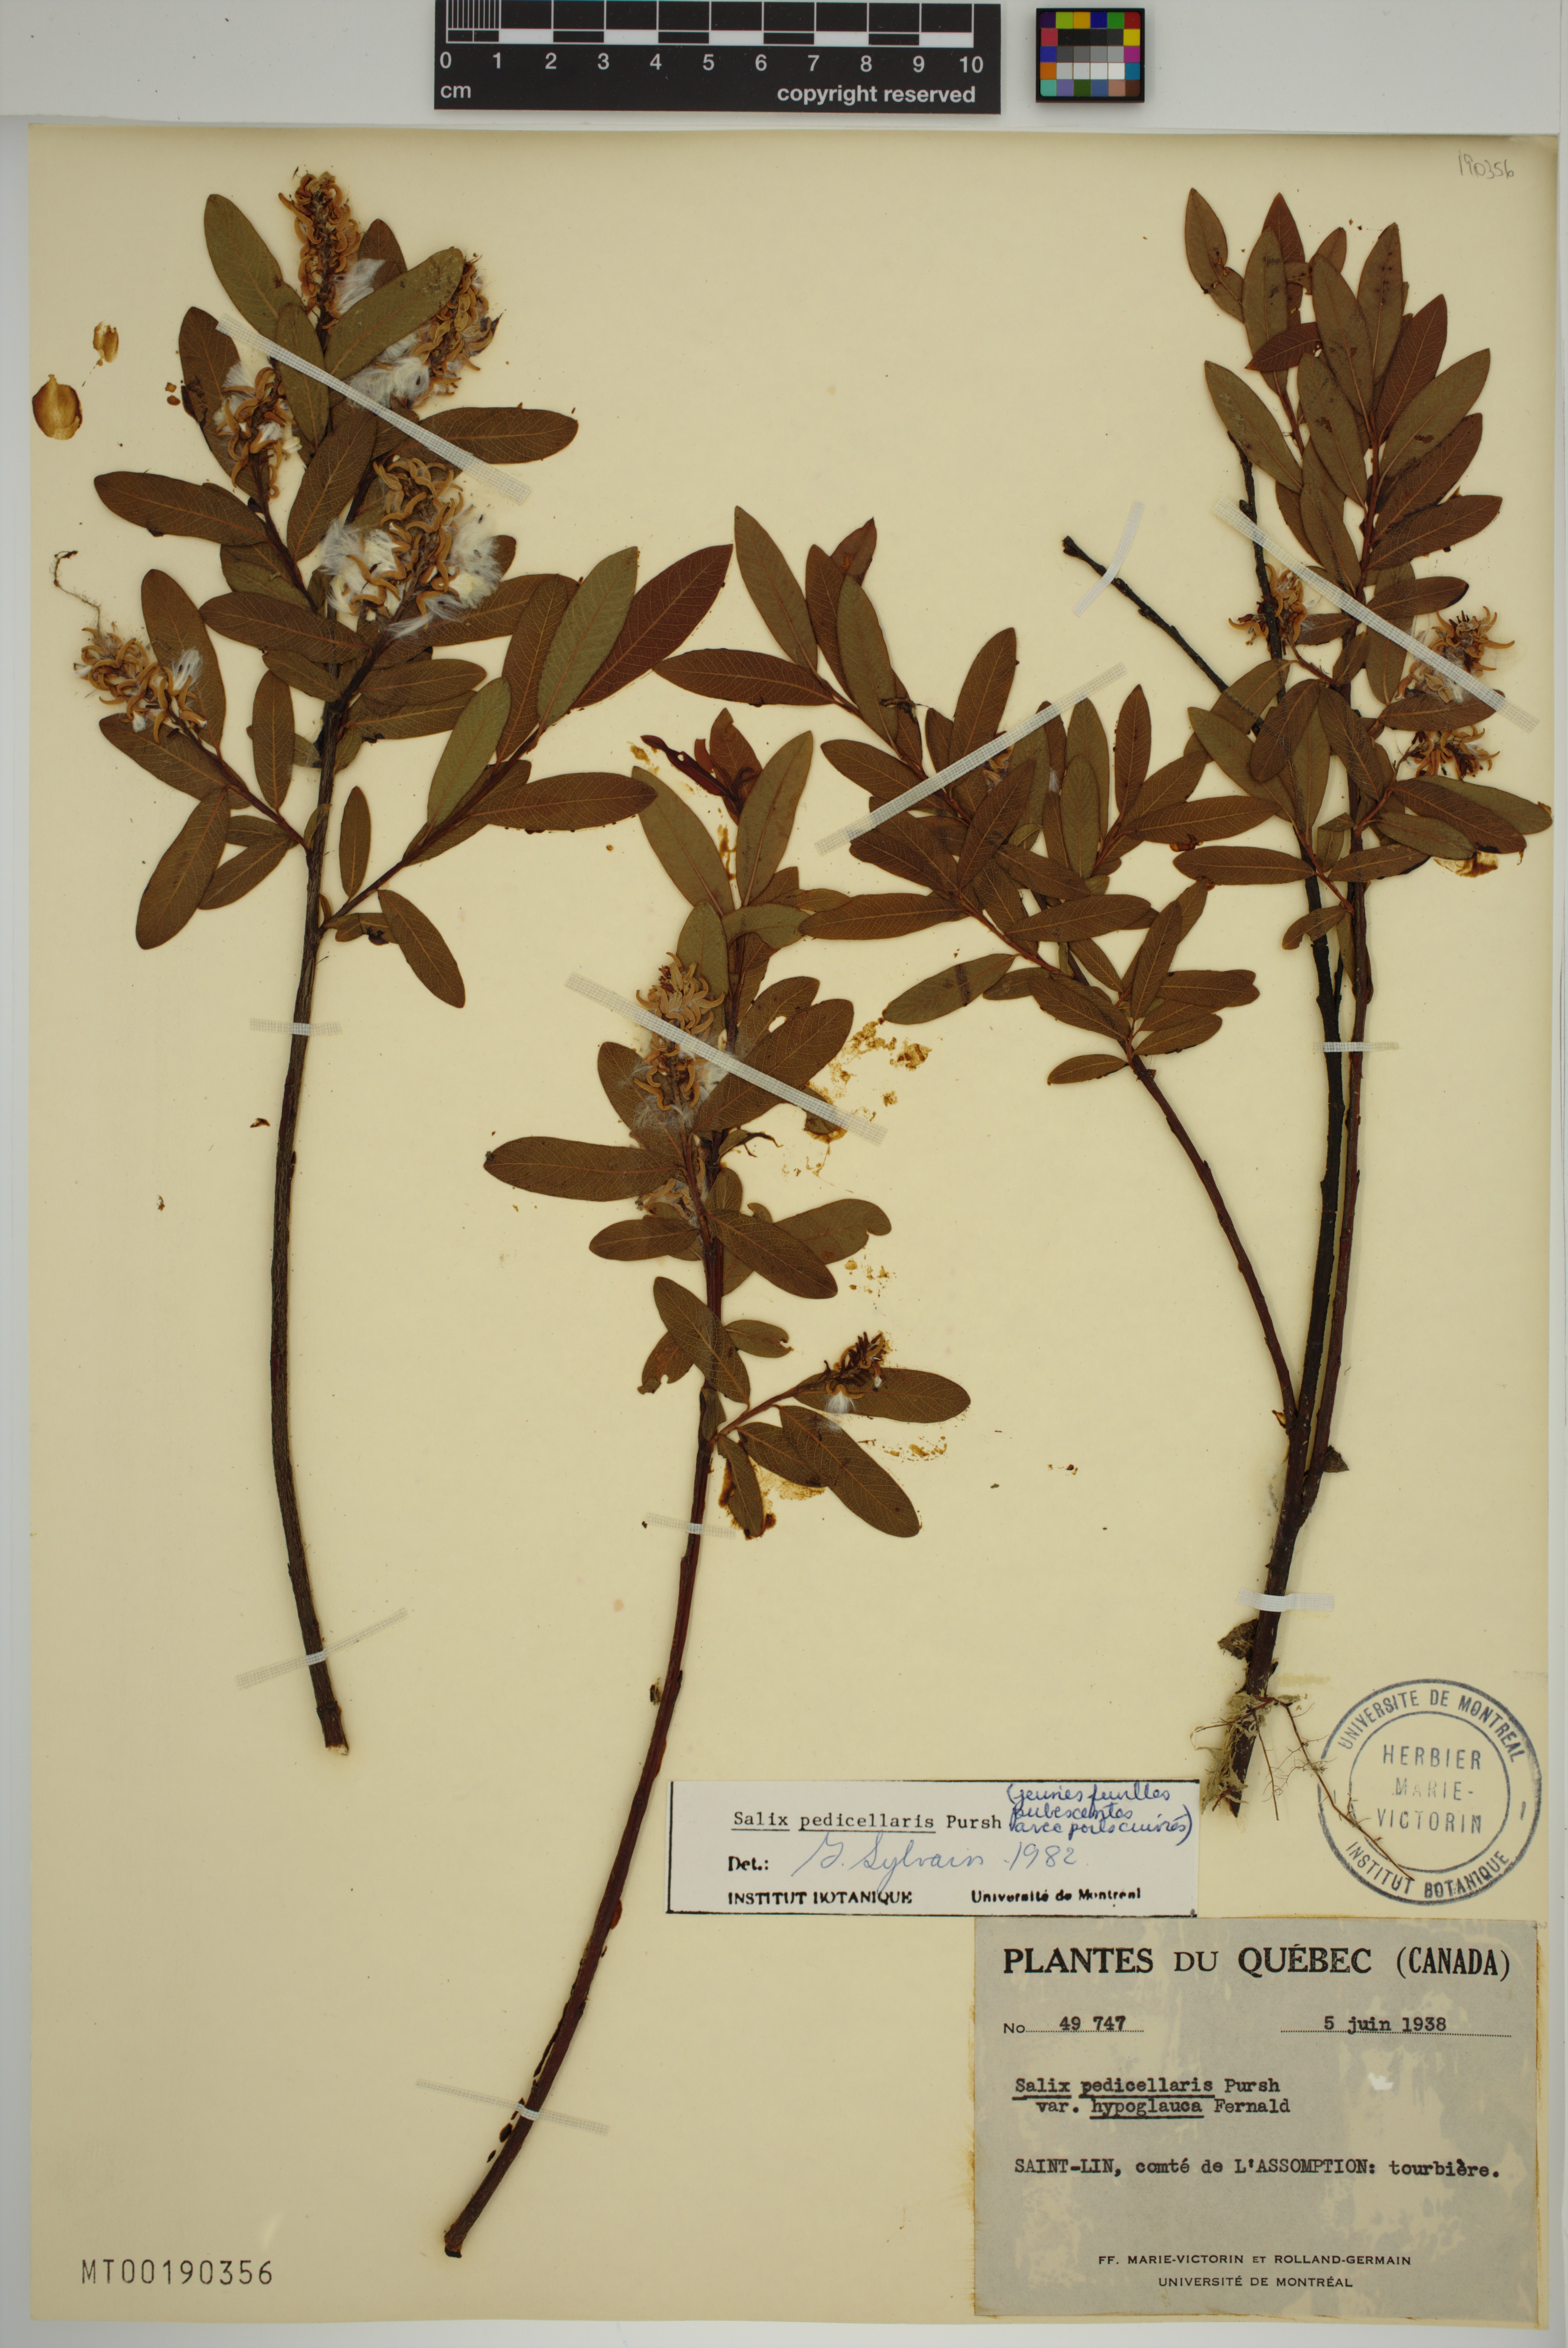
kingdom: Plantae
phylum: Tracheophyta
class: Magnoliopsida
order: Malpighiales
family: Salicaceae
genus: Salix
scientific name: Salix pedicellaris
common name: Bog willow
